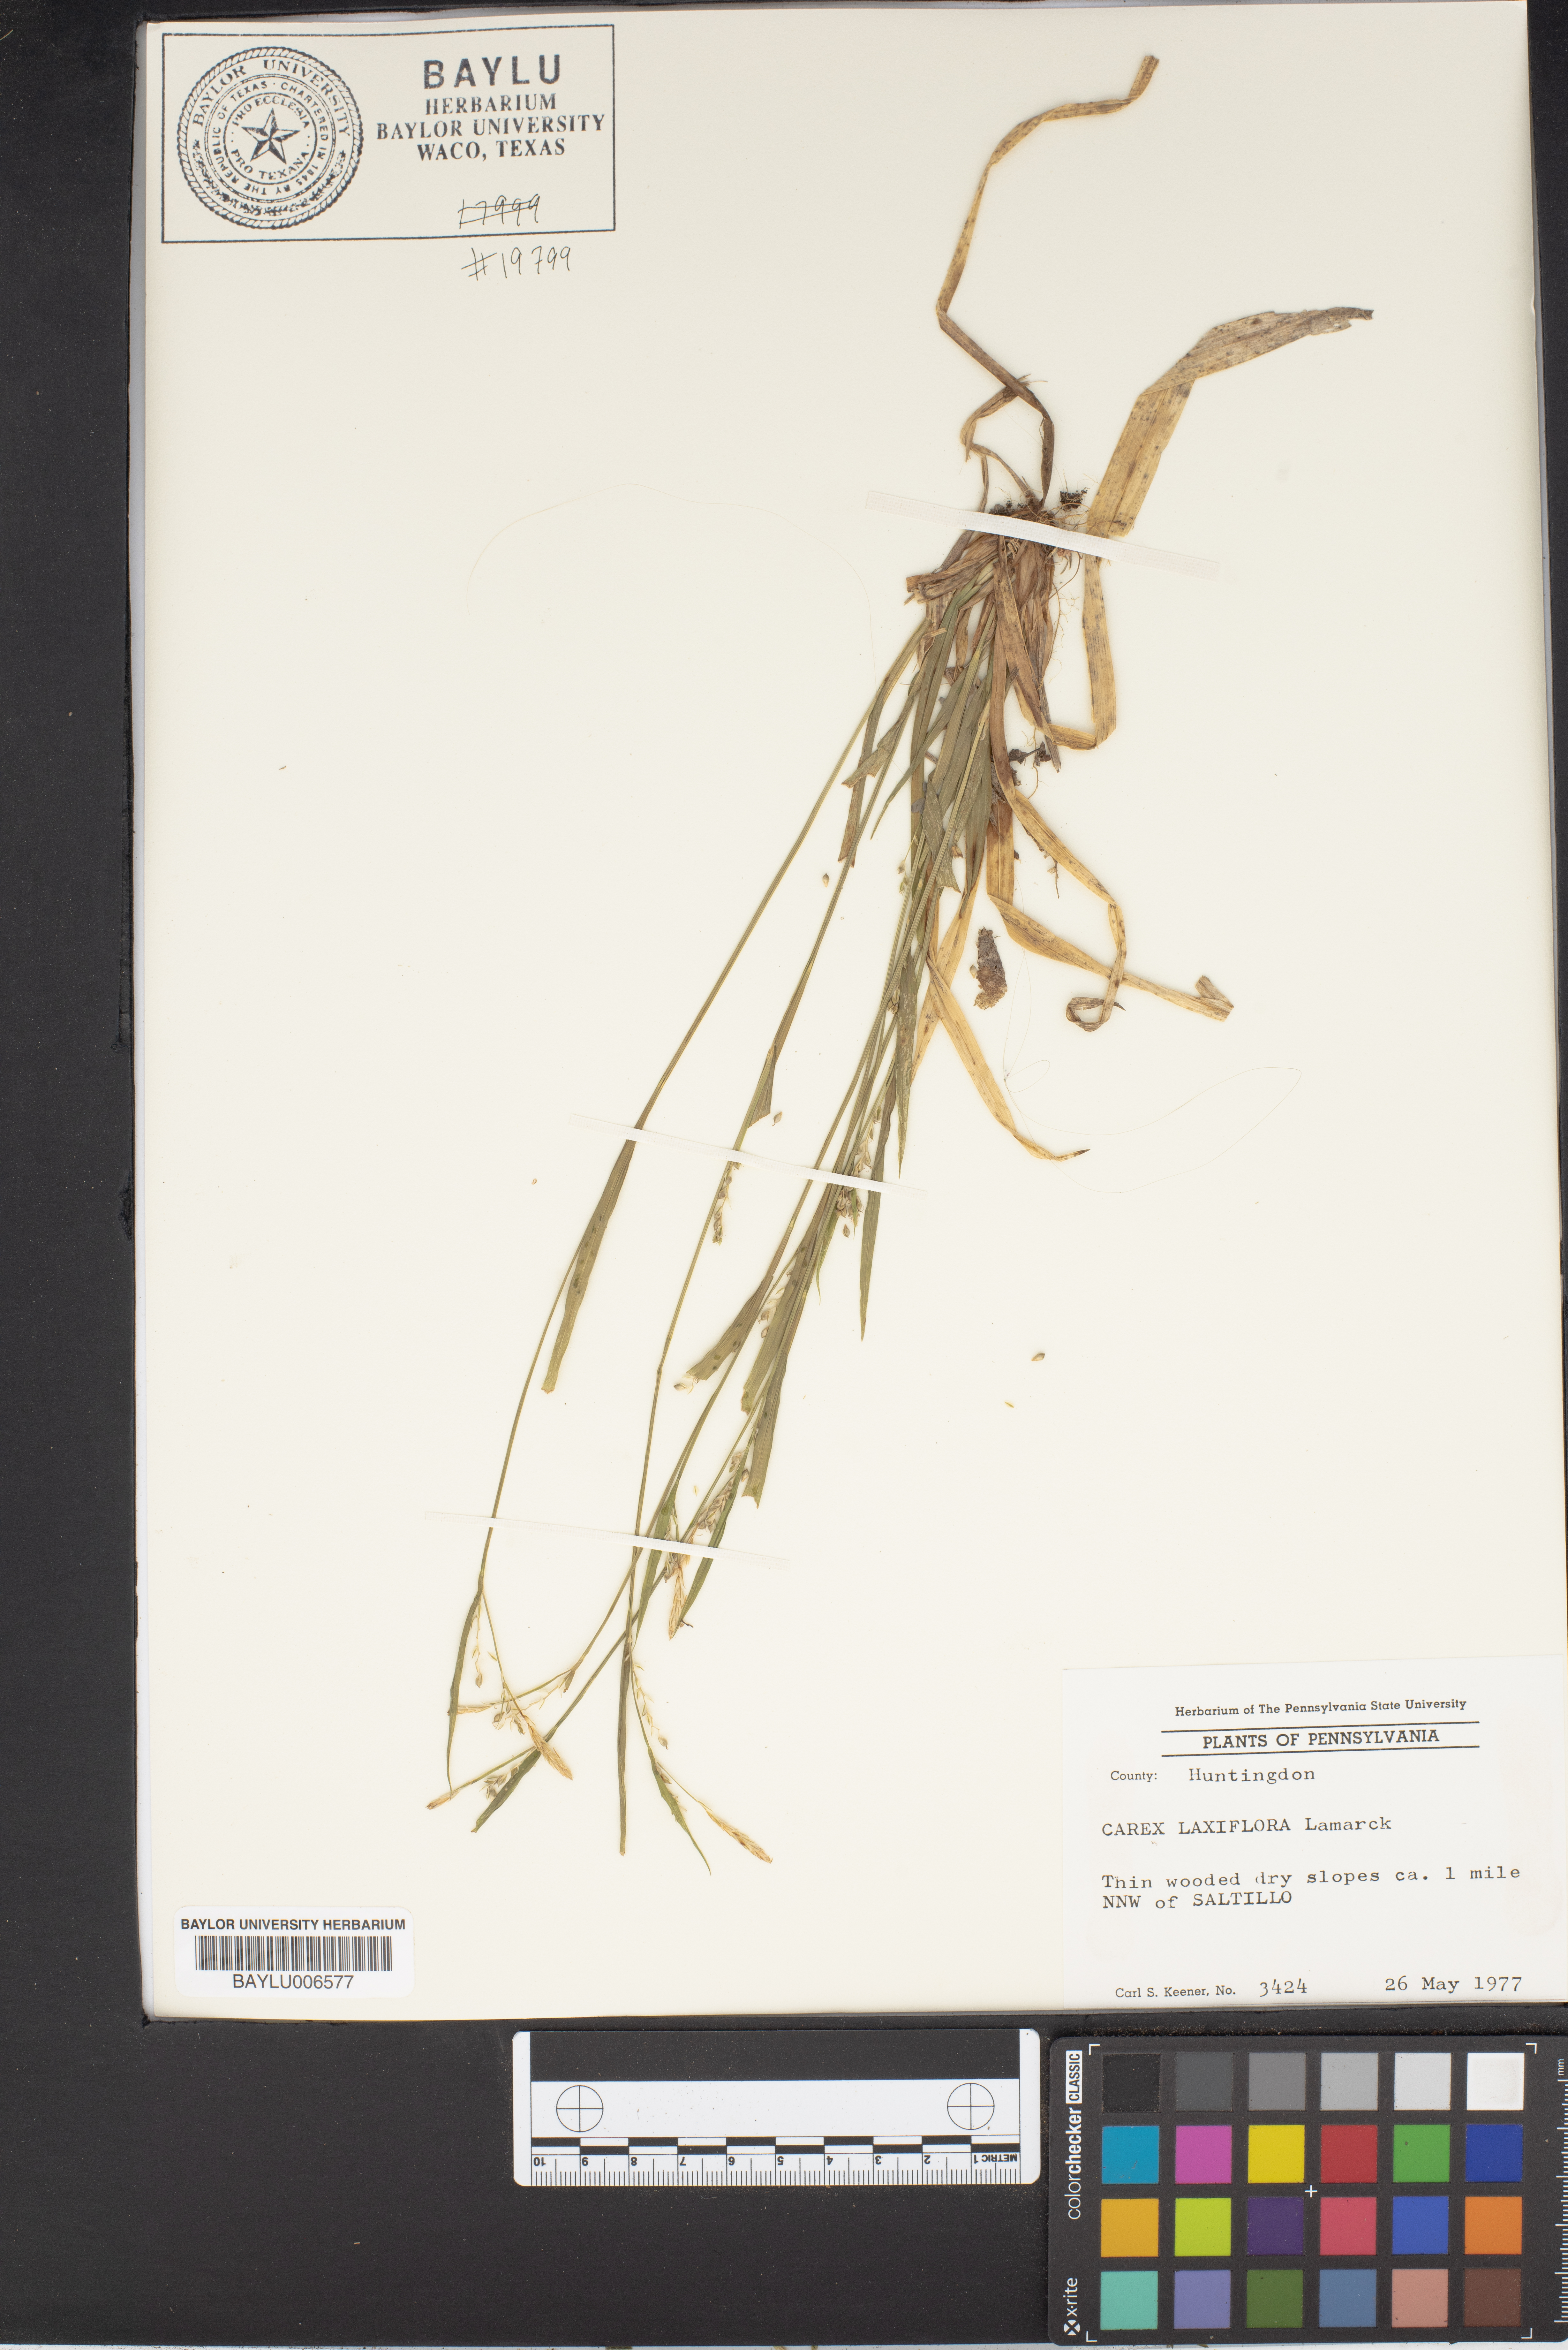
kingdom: Plantae
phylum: Tracheophyta
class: Liliopsida
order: Poales
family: Cyperaceae
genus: Carex
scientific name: Carex laxiflora
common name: Beech wood sedge
